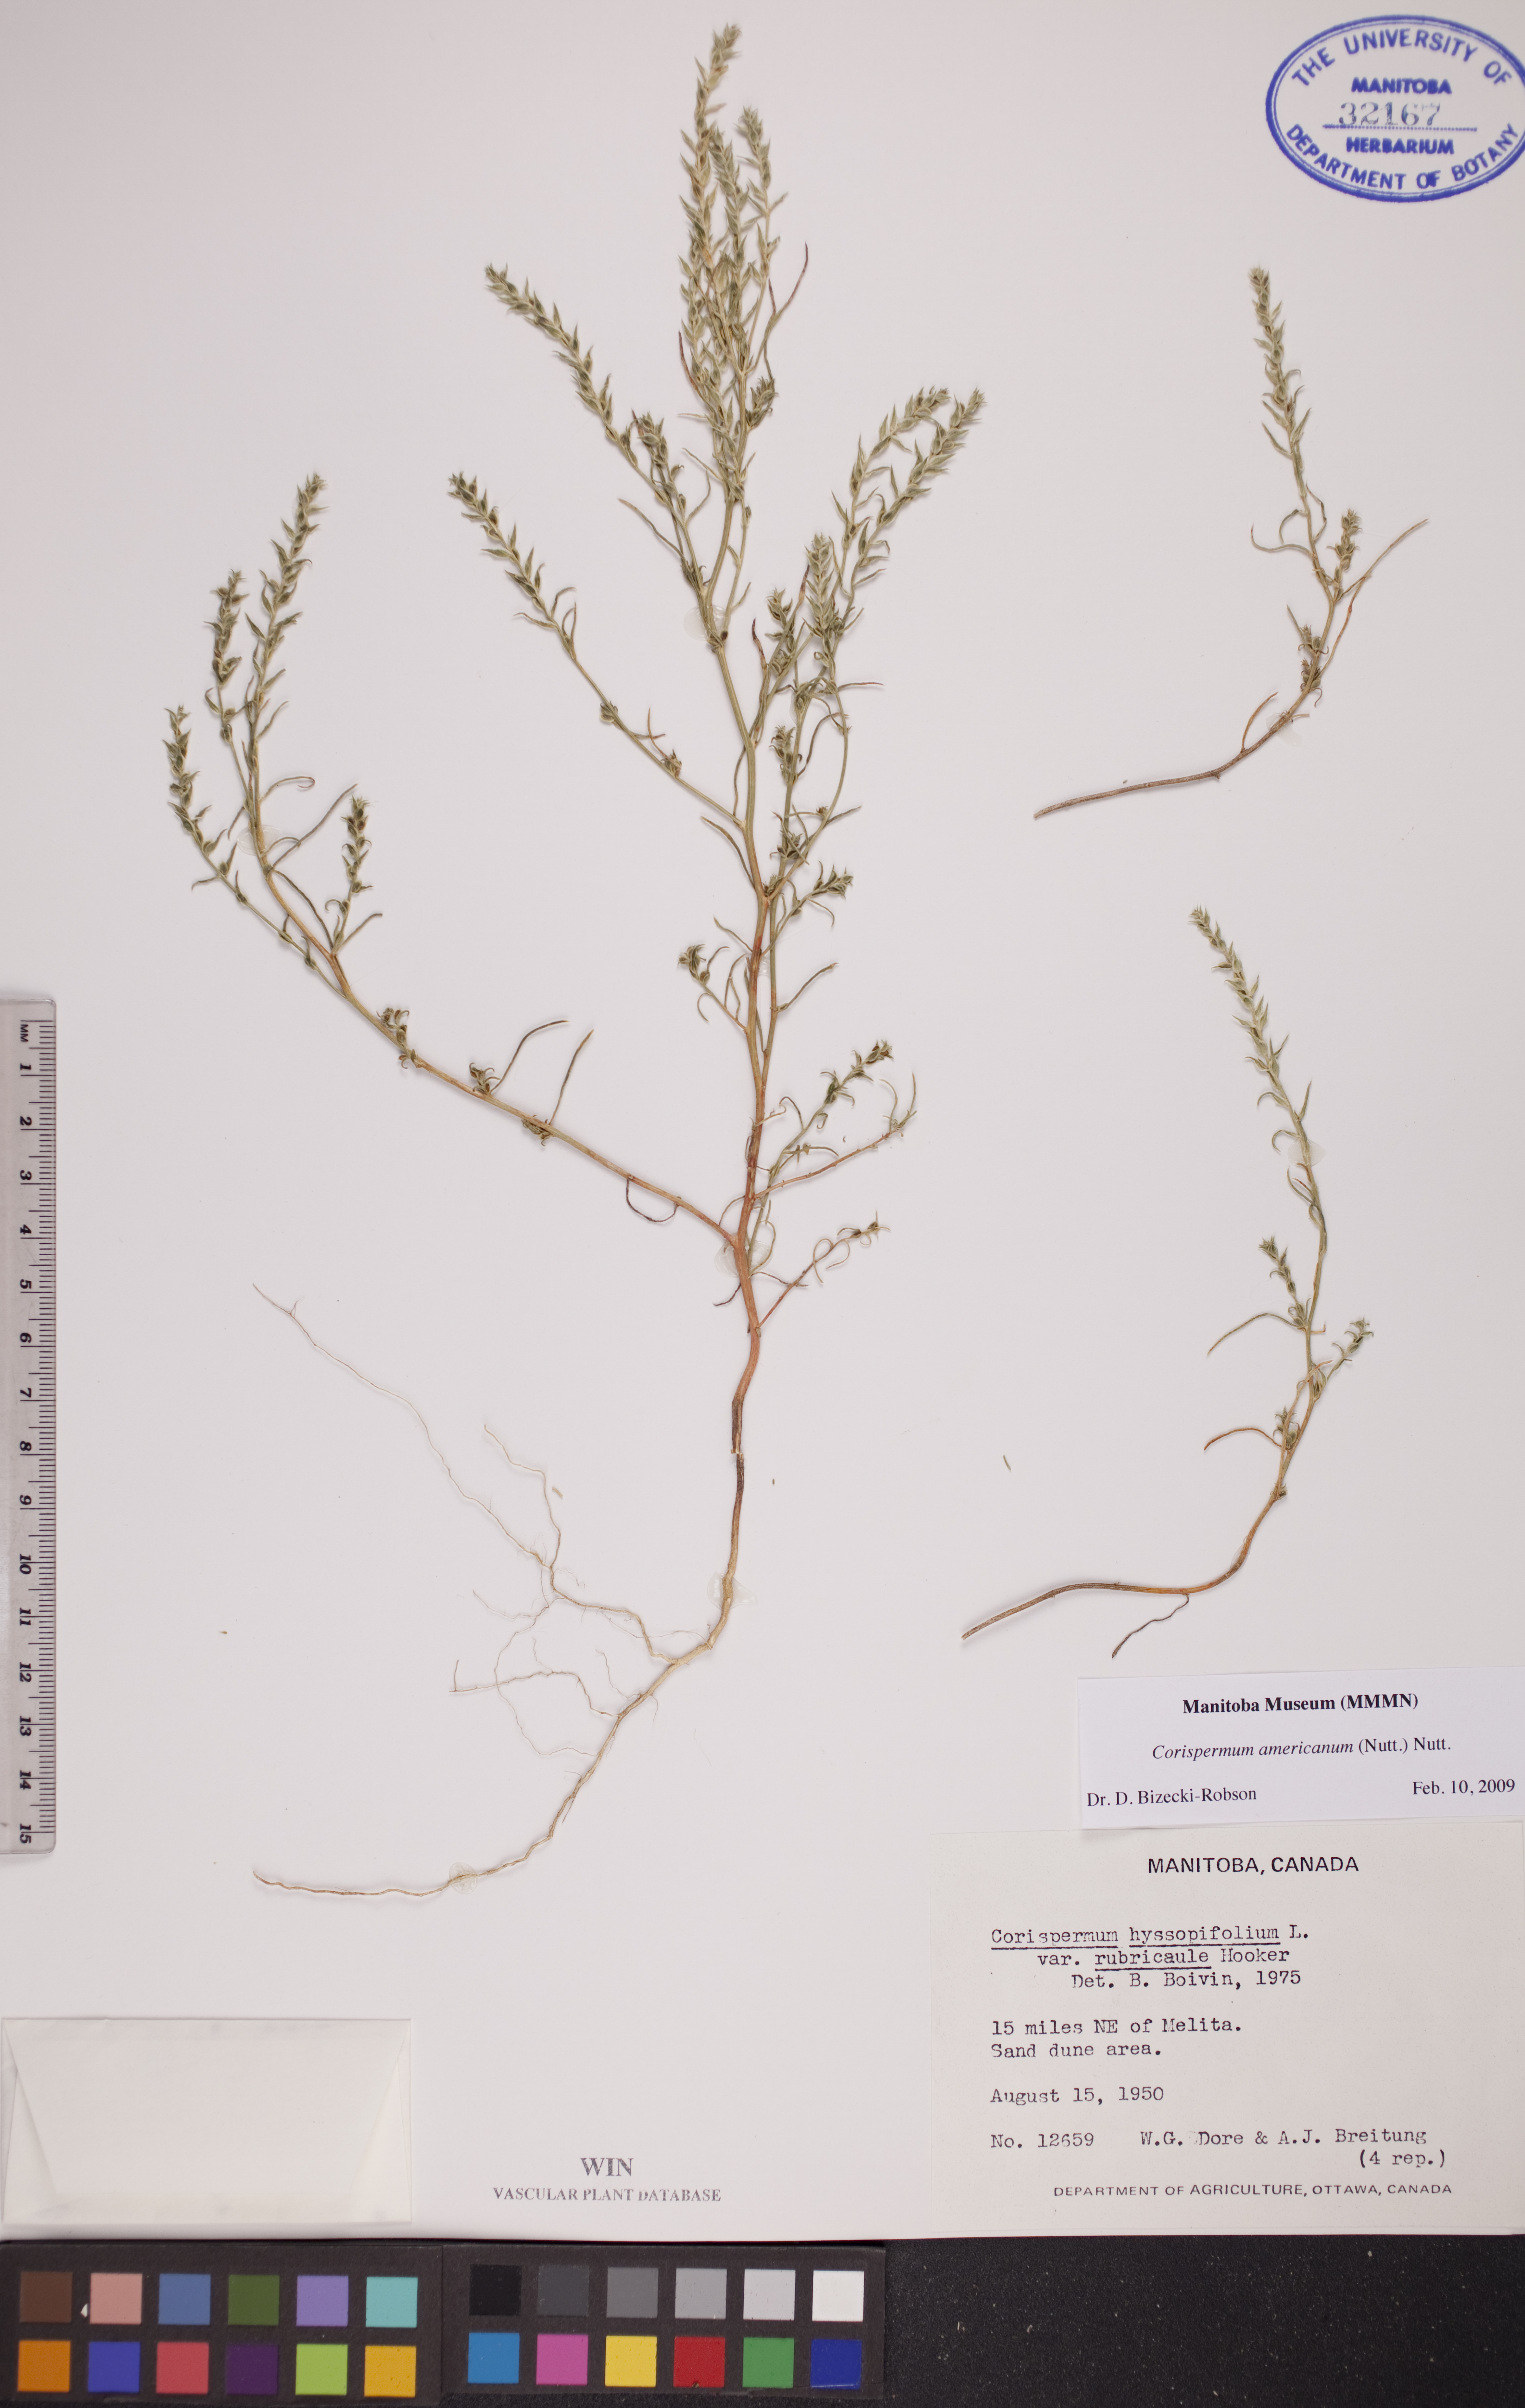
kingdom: Plantae
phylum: Tracheophyta
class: Magnoliopsida
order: Caryophyllales
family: Amaranthaceae
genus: Corispermum
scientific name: Corispermum americanum
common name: American bugseed
